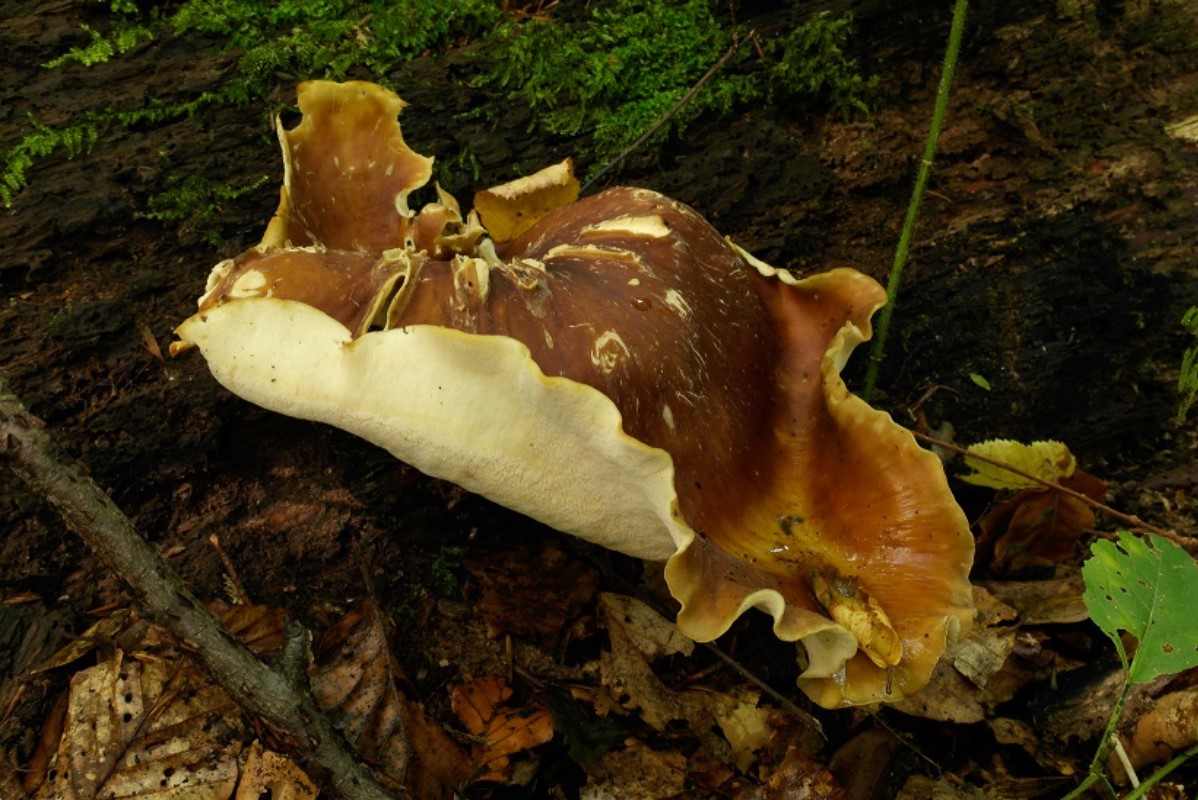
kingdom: Fungi
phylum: Basidiomycota
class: Agaricomycetes
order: Polyporales
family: Polyporaceae
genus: Picipes
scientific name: Picipes badius
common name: kastaniebrun stilkporesvamp
